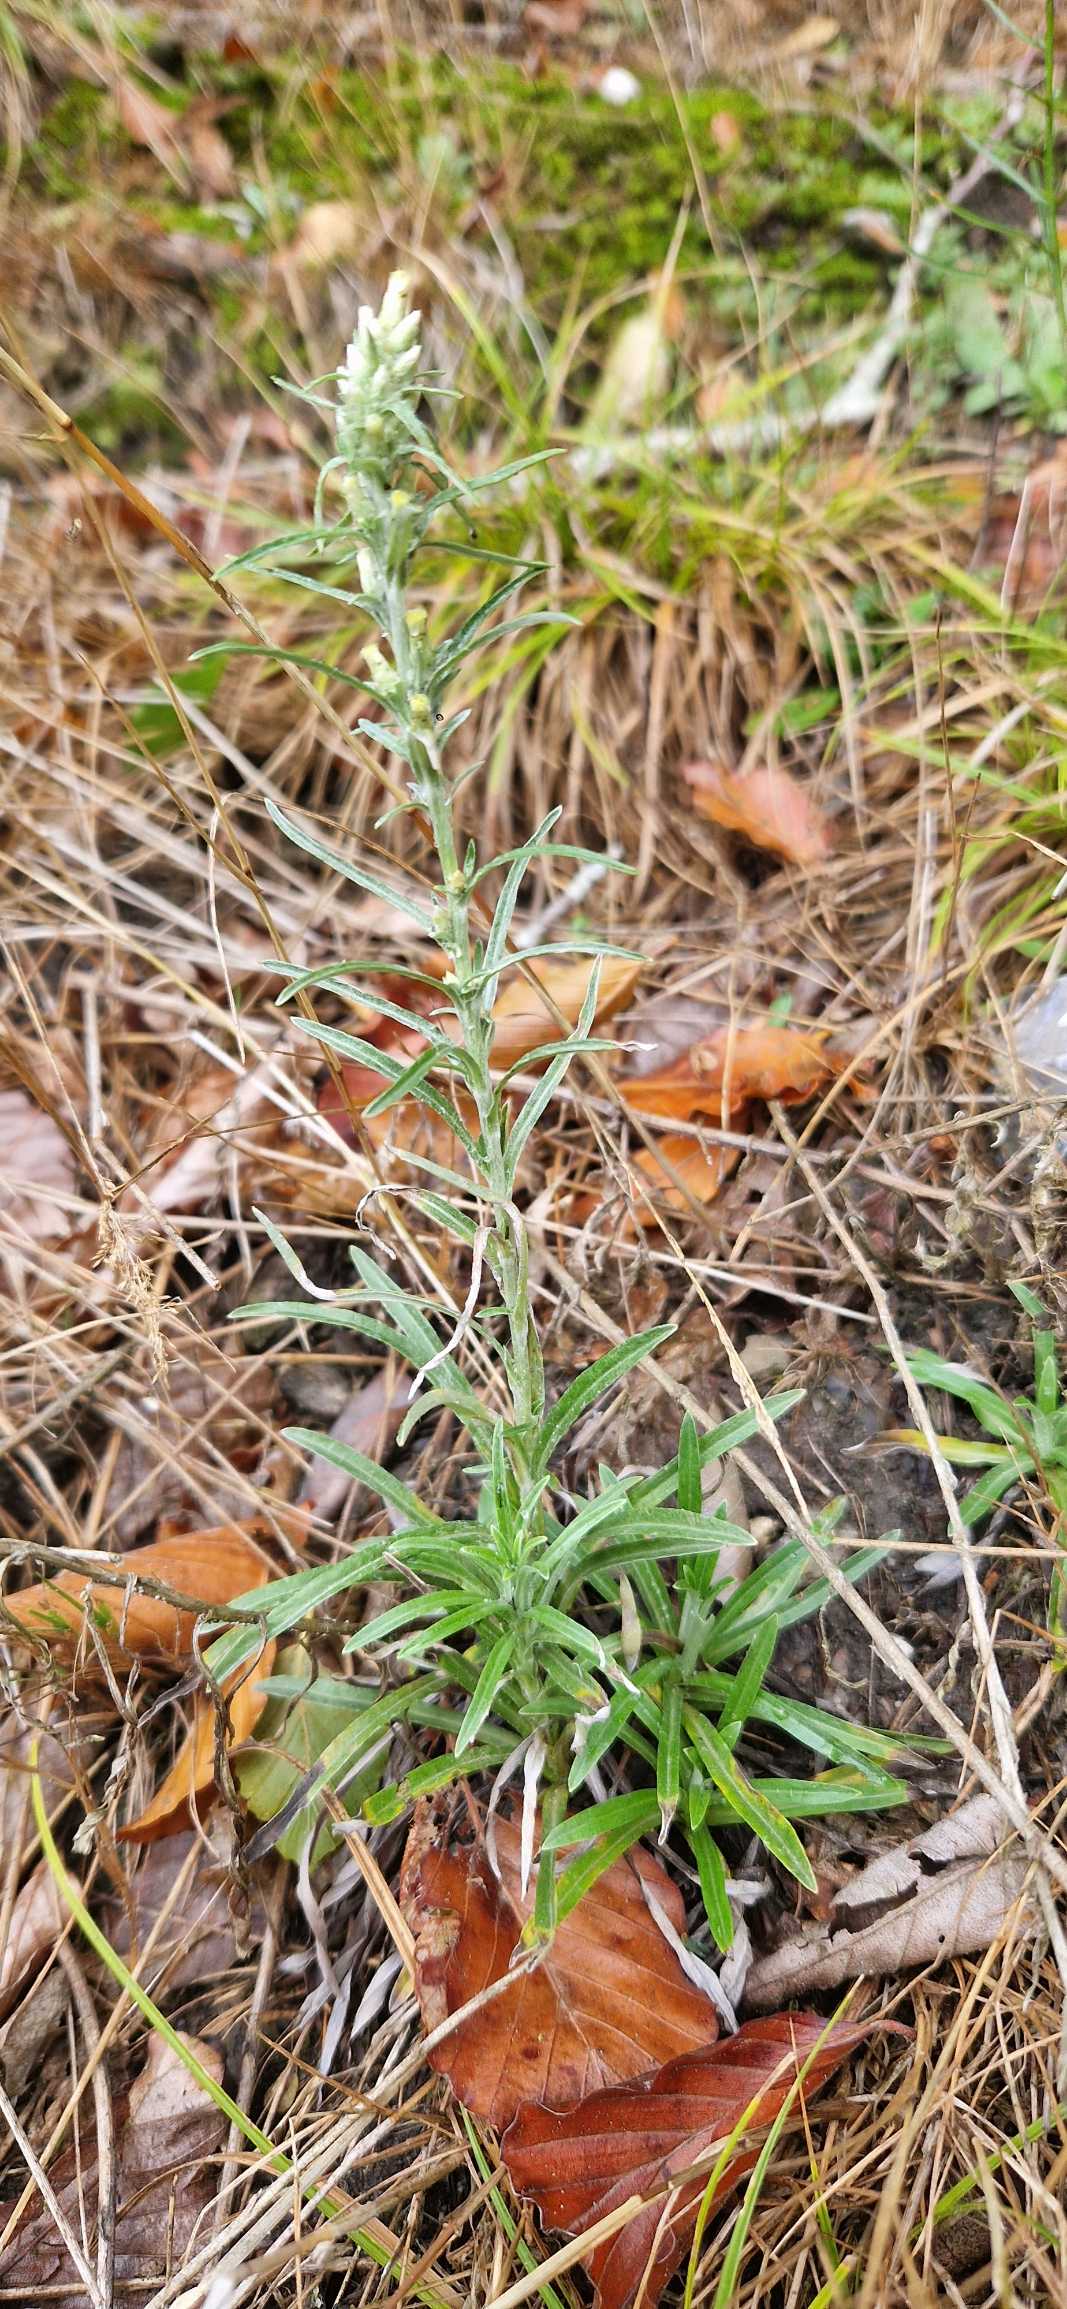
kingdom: Plantae
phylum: Tracheophyta
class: Magnoliopsida
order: Asterales
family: Asteraceae
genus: Omalotheca
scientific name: Omalotheca sylvatica
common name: Rank evighedsblomst
